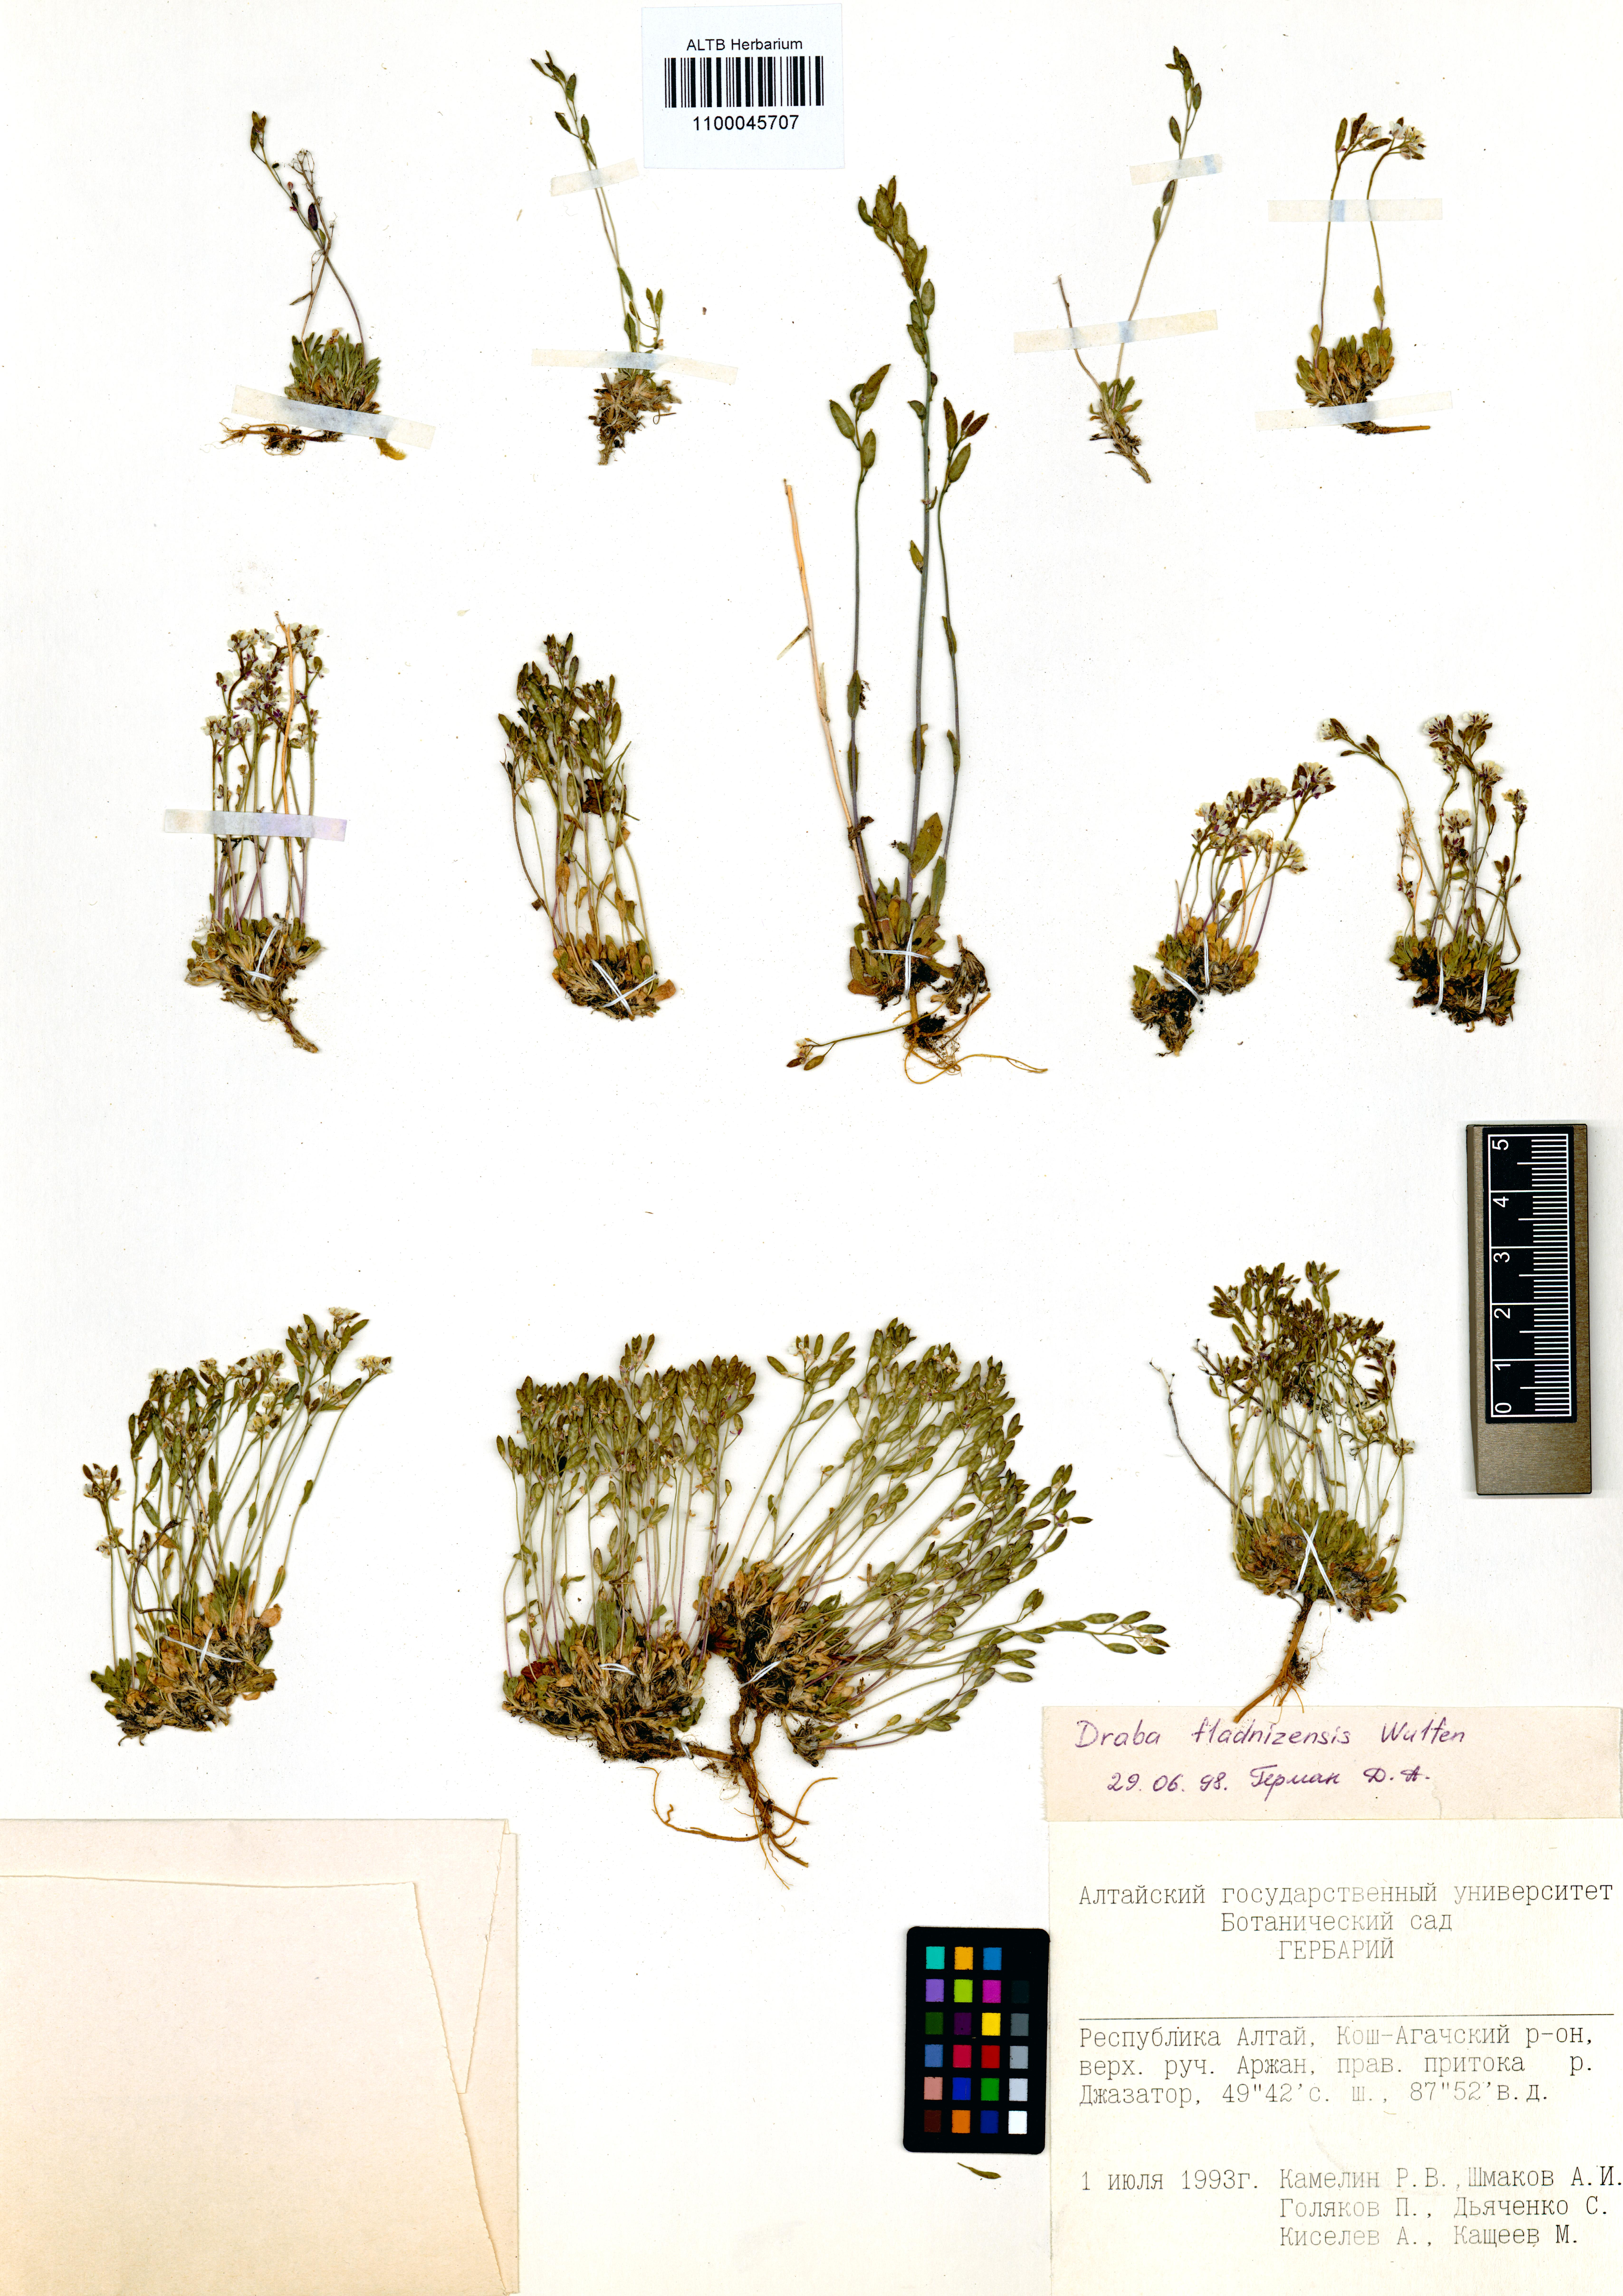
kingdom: Plantae
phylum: Tracheophyta
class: Magnoliopsida
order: Brassicales
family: Brassicaceae
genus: Draba
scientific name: Draba fladnizensis
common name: Austrian draba
